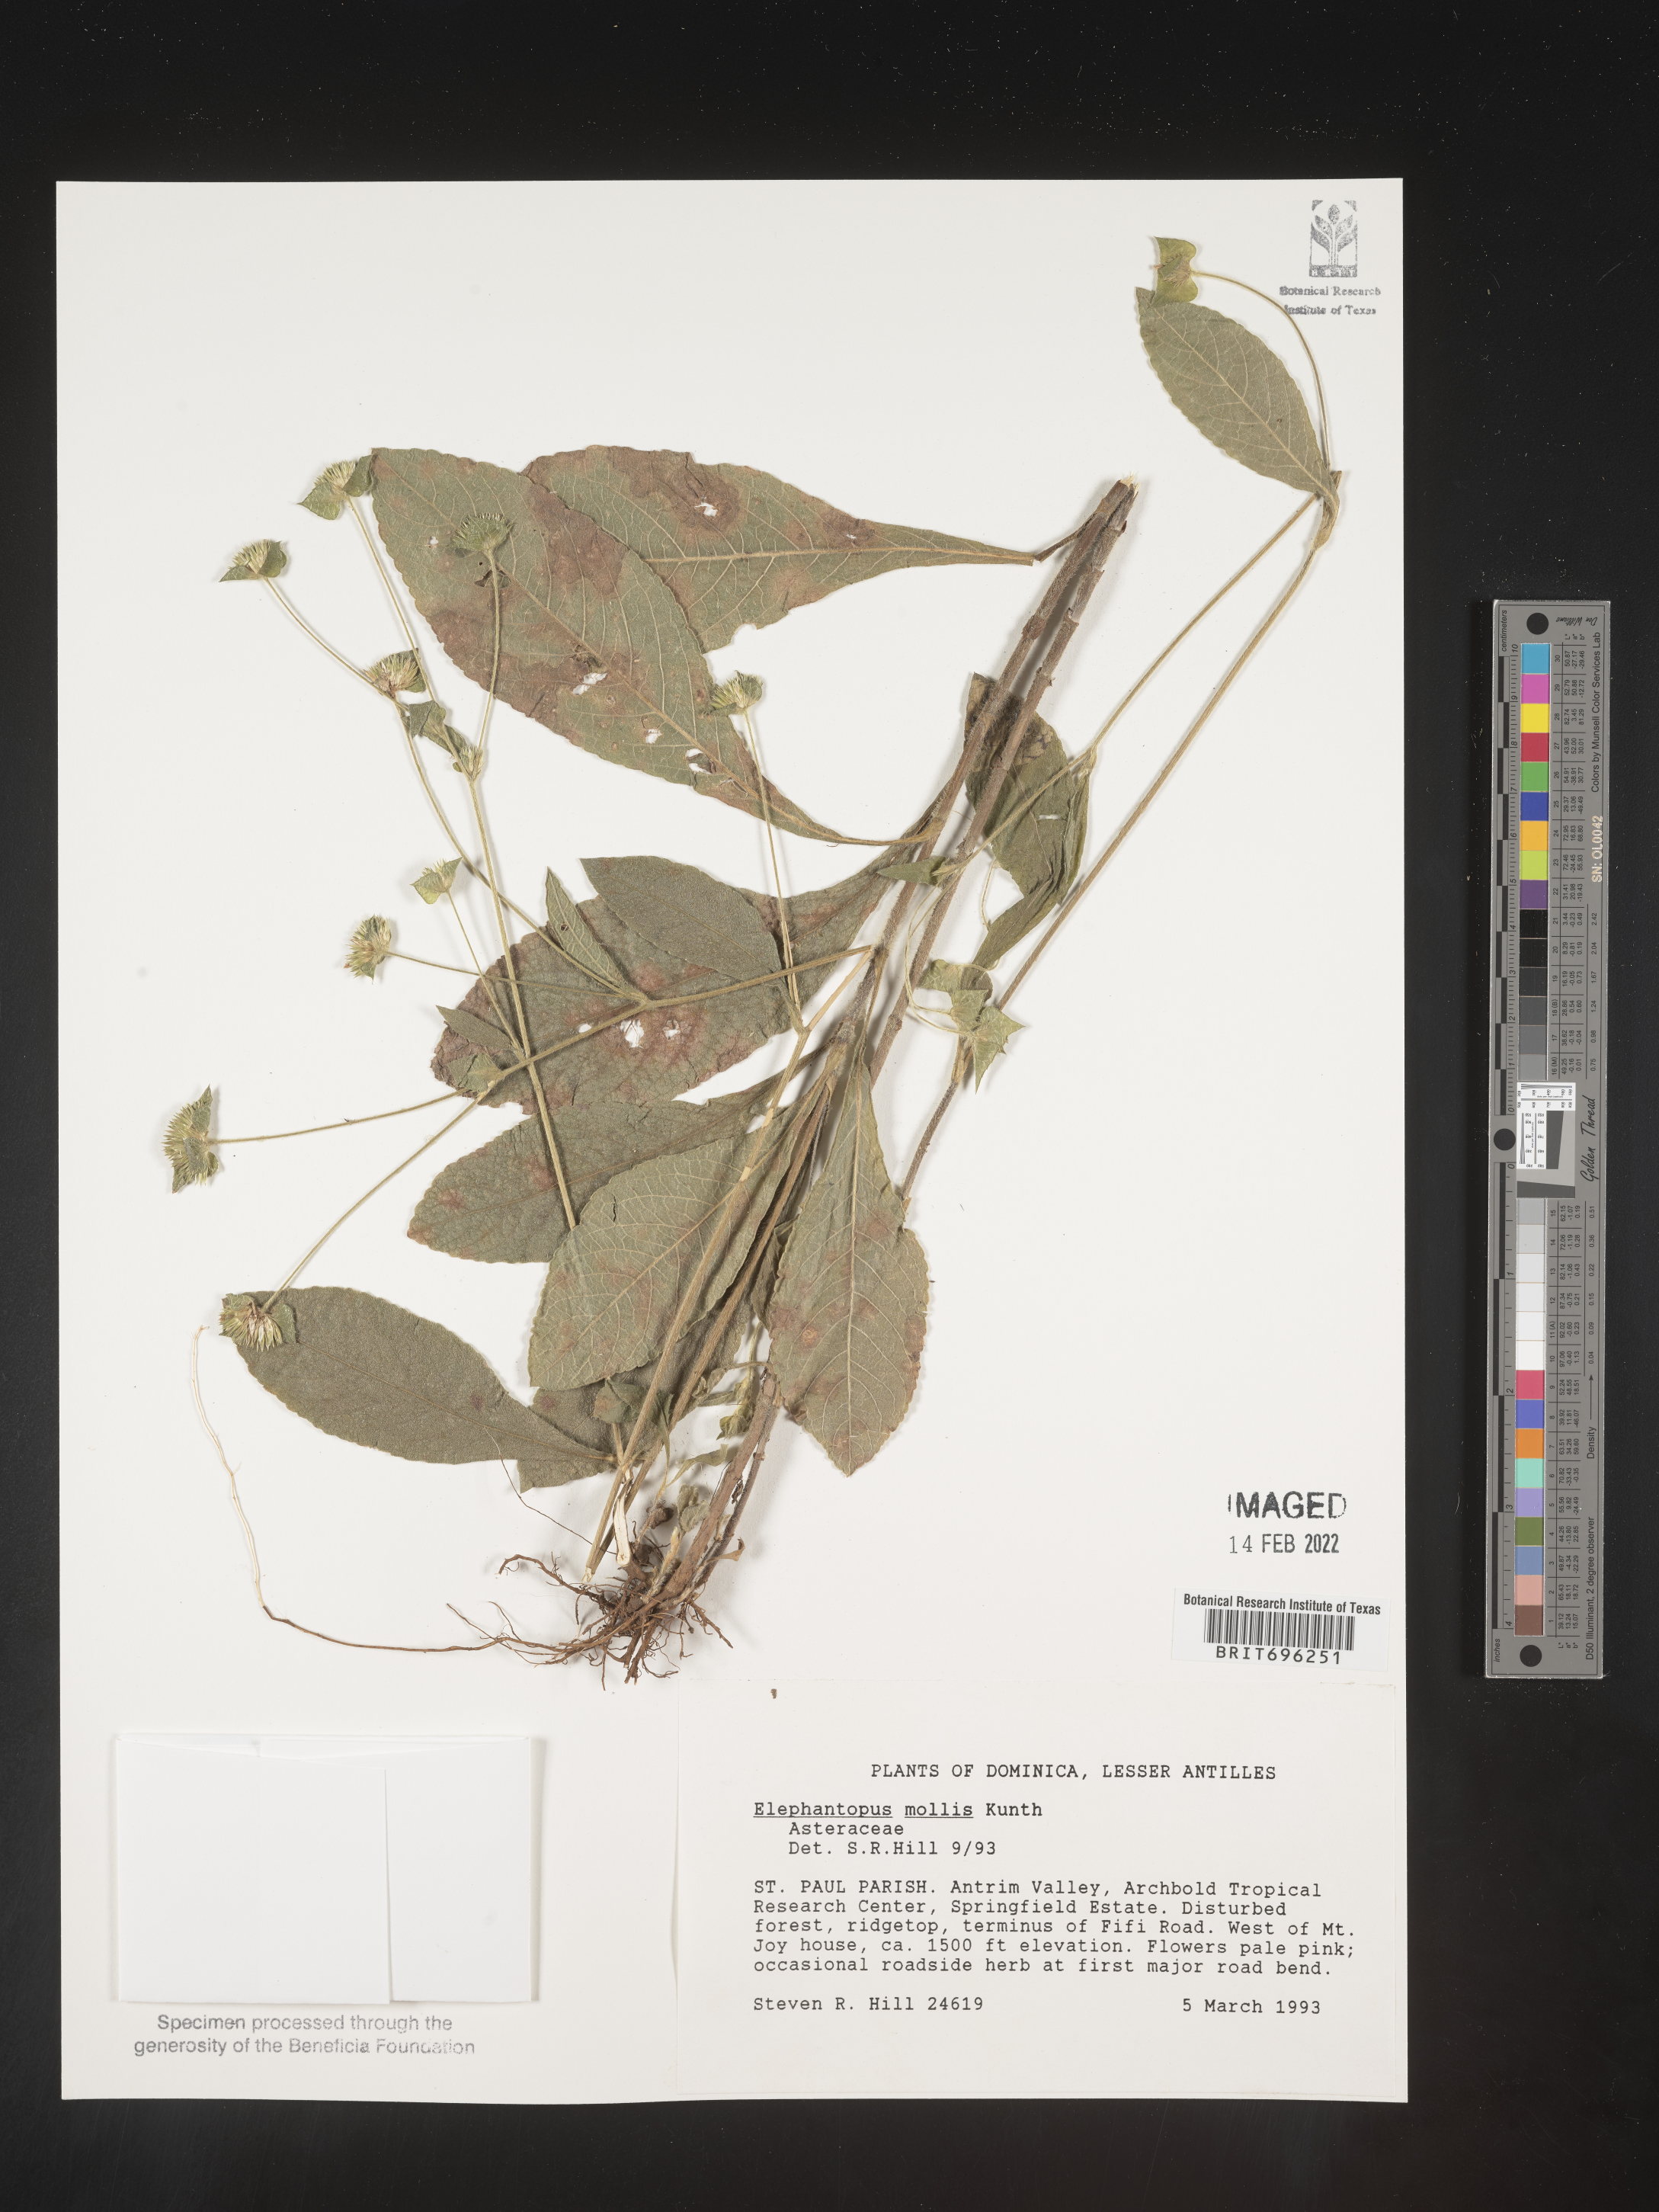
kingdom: Plantae
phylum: Tracheophyta
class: Magnoliopsida
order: Asterales
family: Asteraceae
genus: Elephantopus
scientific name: Elephantopus
